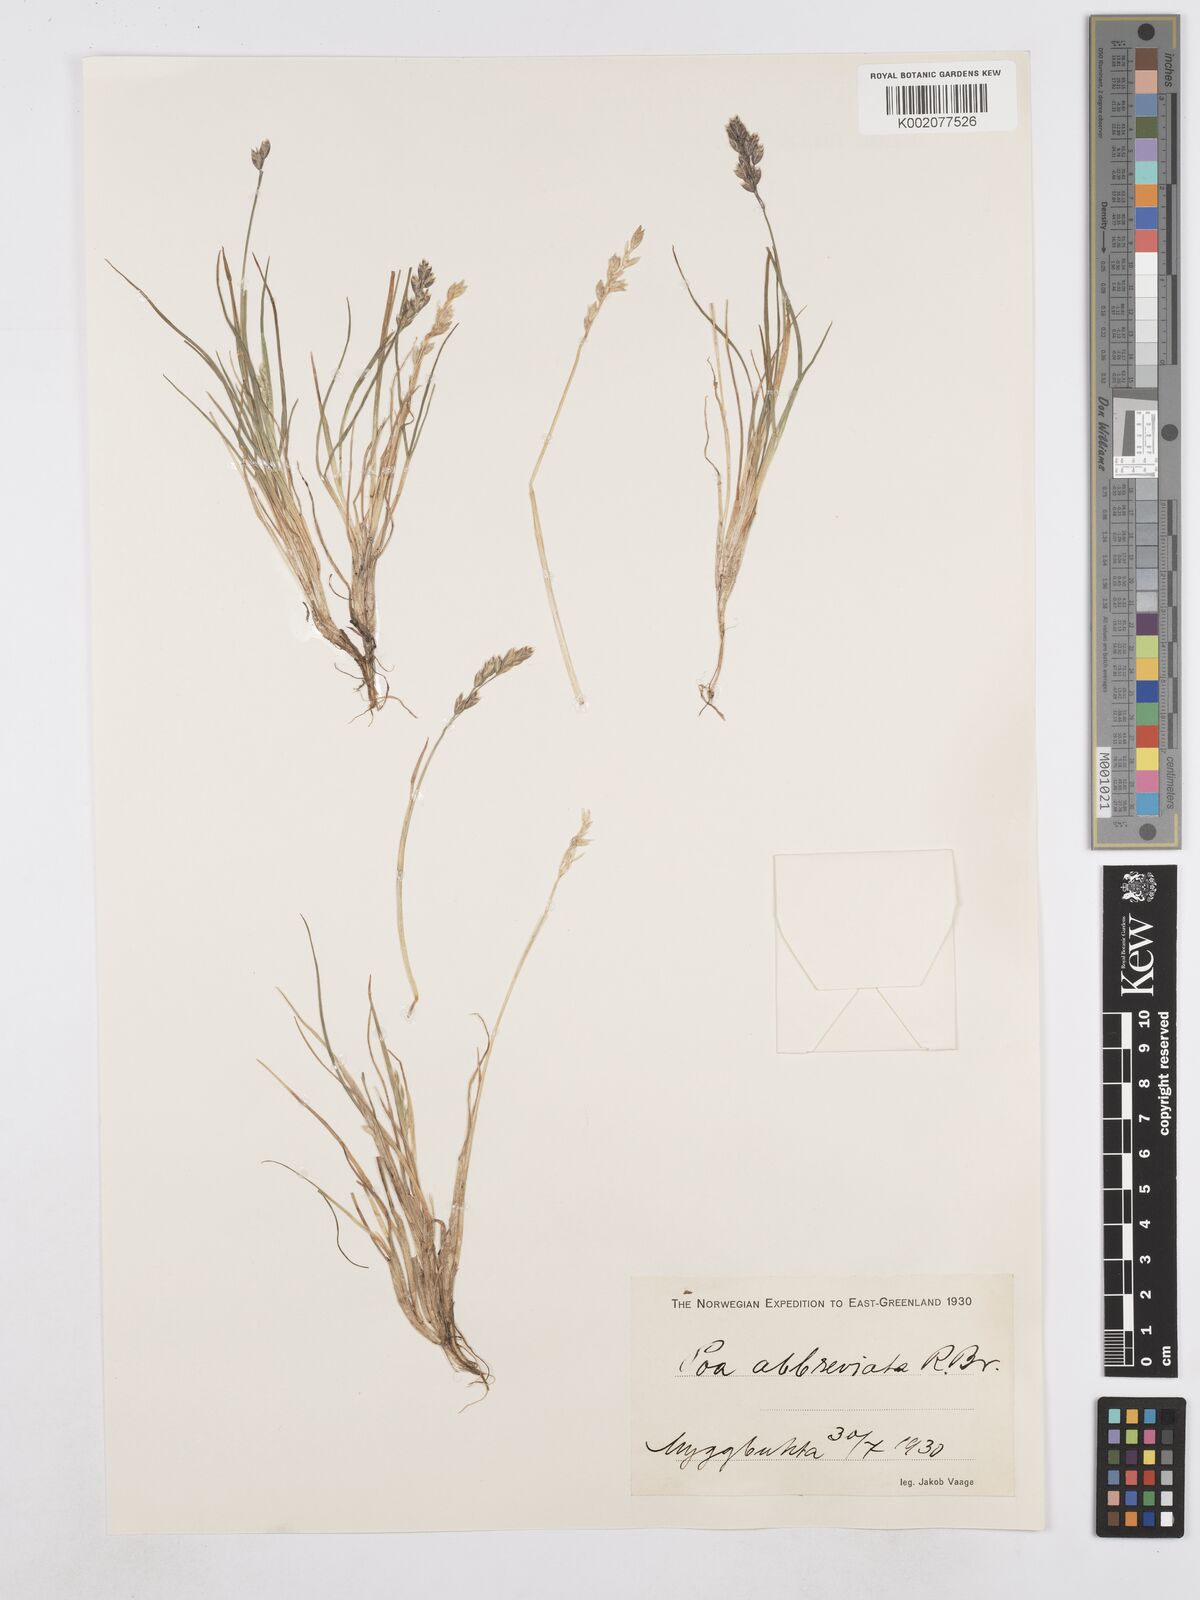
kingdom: Plantae
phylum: Tracheophyta
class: Liliopsida
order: Poales
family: Poaceae
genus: Poa
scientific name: Poa abbreviata
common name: Abbreviated bluegrass
